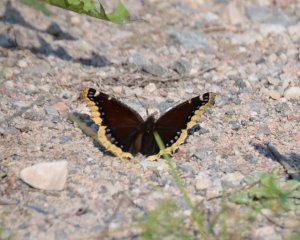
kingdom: Animalia
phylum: Arthropoda
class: Insecta
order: Lepidoptera
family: Nymphalidae
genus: Nymphalis
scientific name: Nymphalis antiopa
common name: Mourning Cloak
